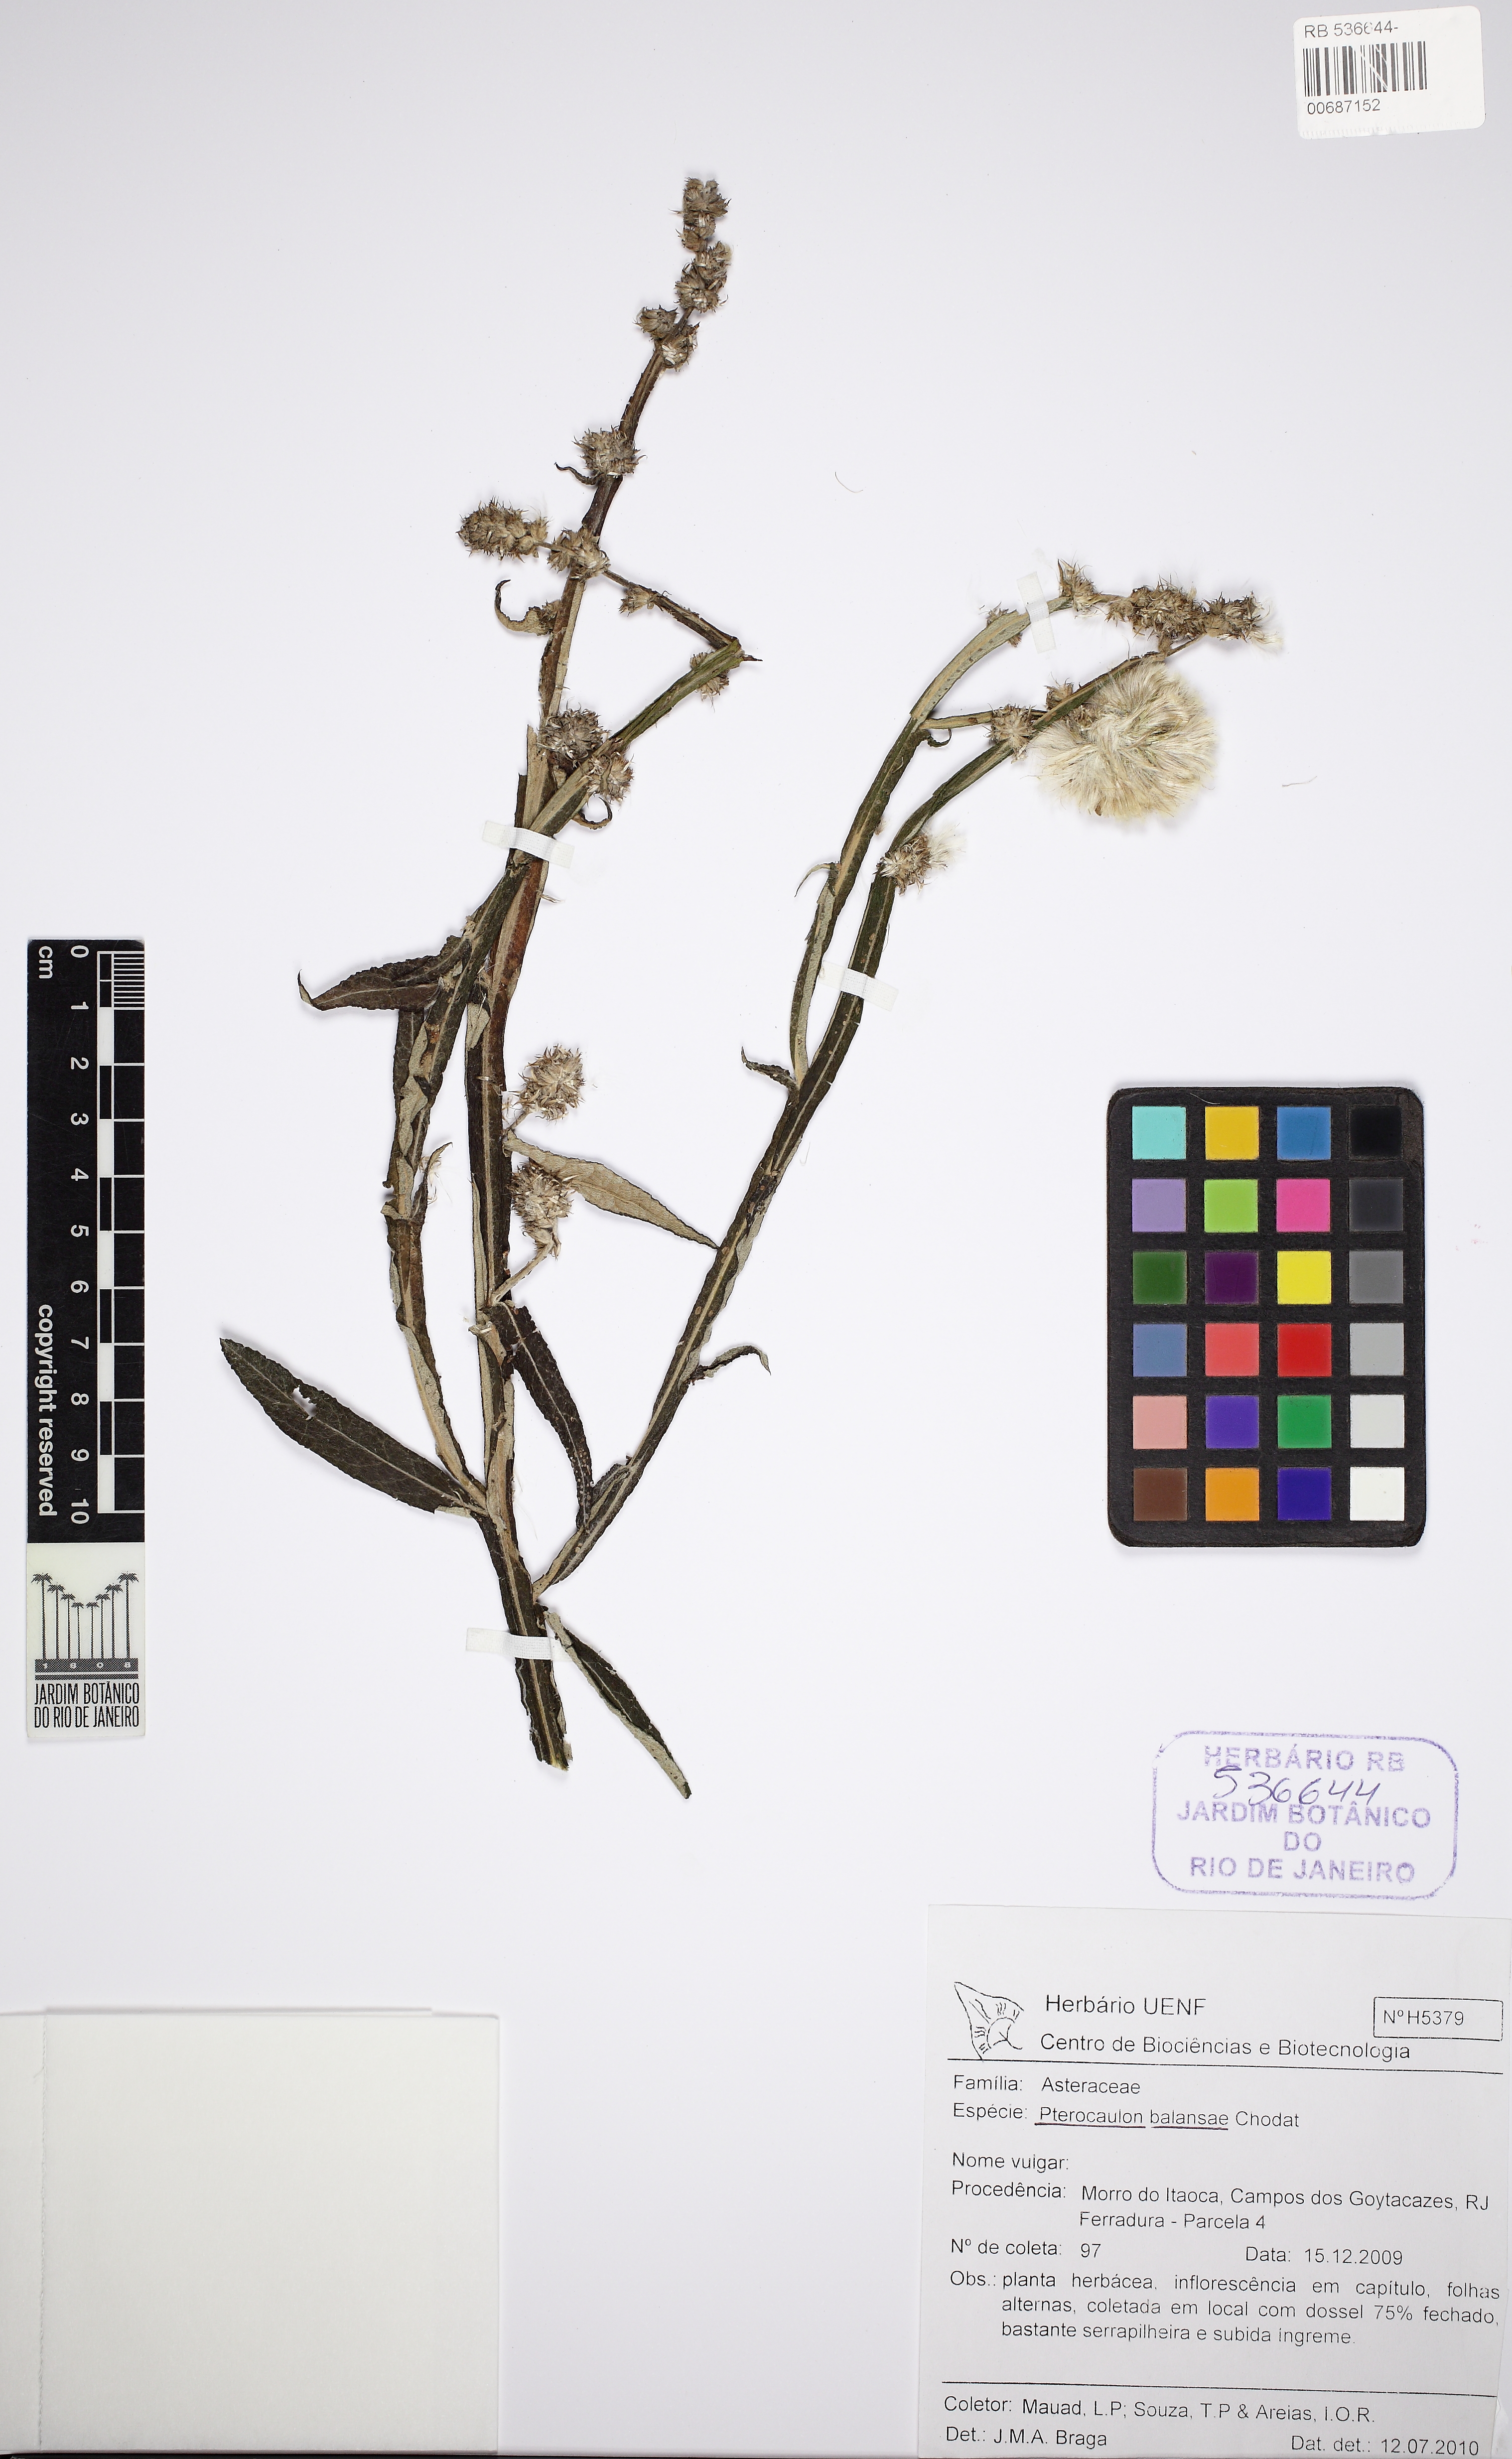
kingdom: Plantae
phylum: Tracheophyta
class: Magnoliopsida
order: Asterales
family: Asteraceae
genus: Pterocaulon
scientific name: Pterocaulon alopecuroides
